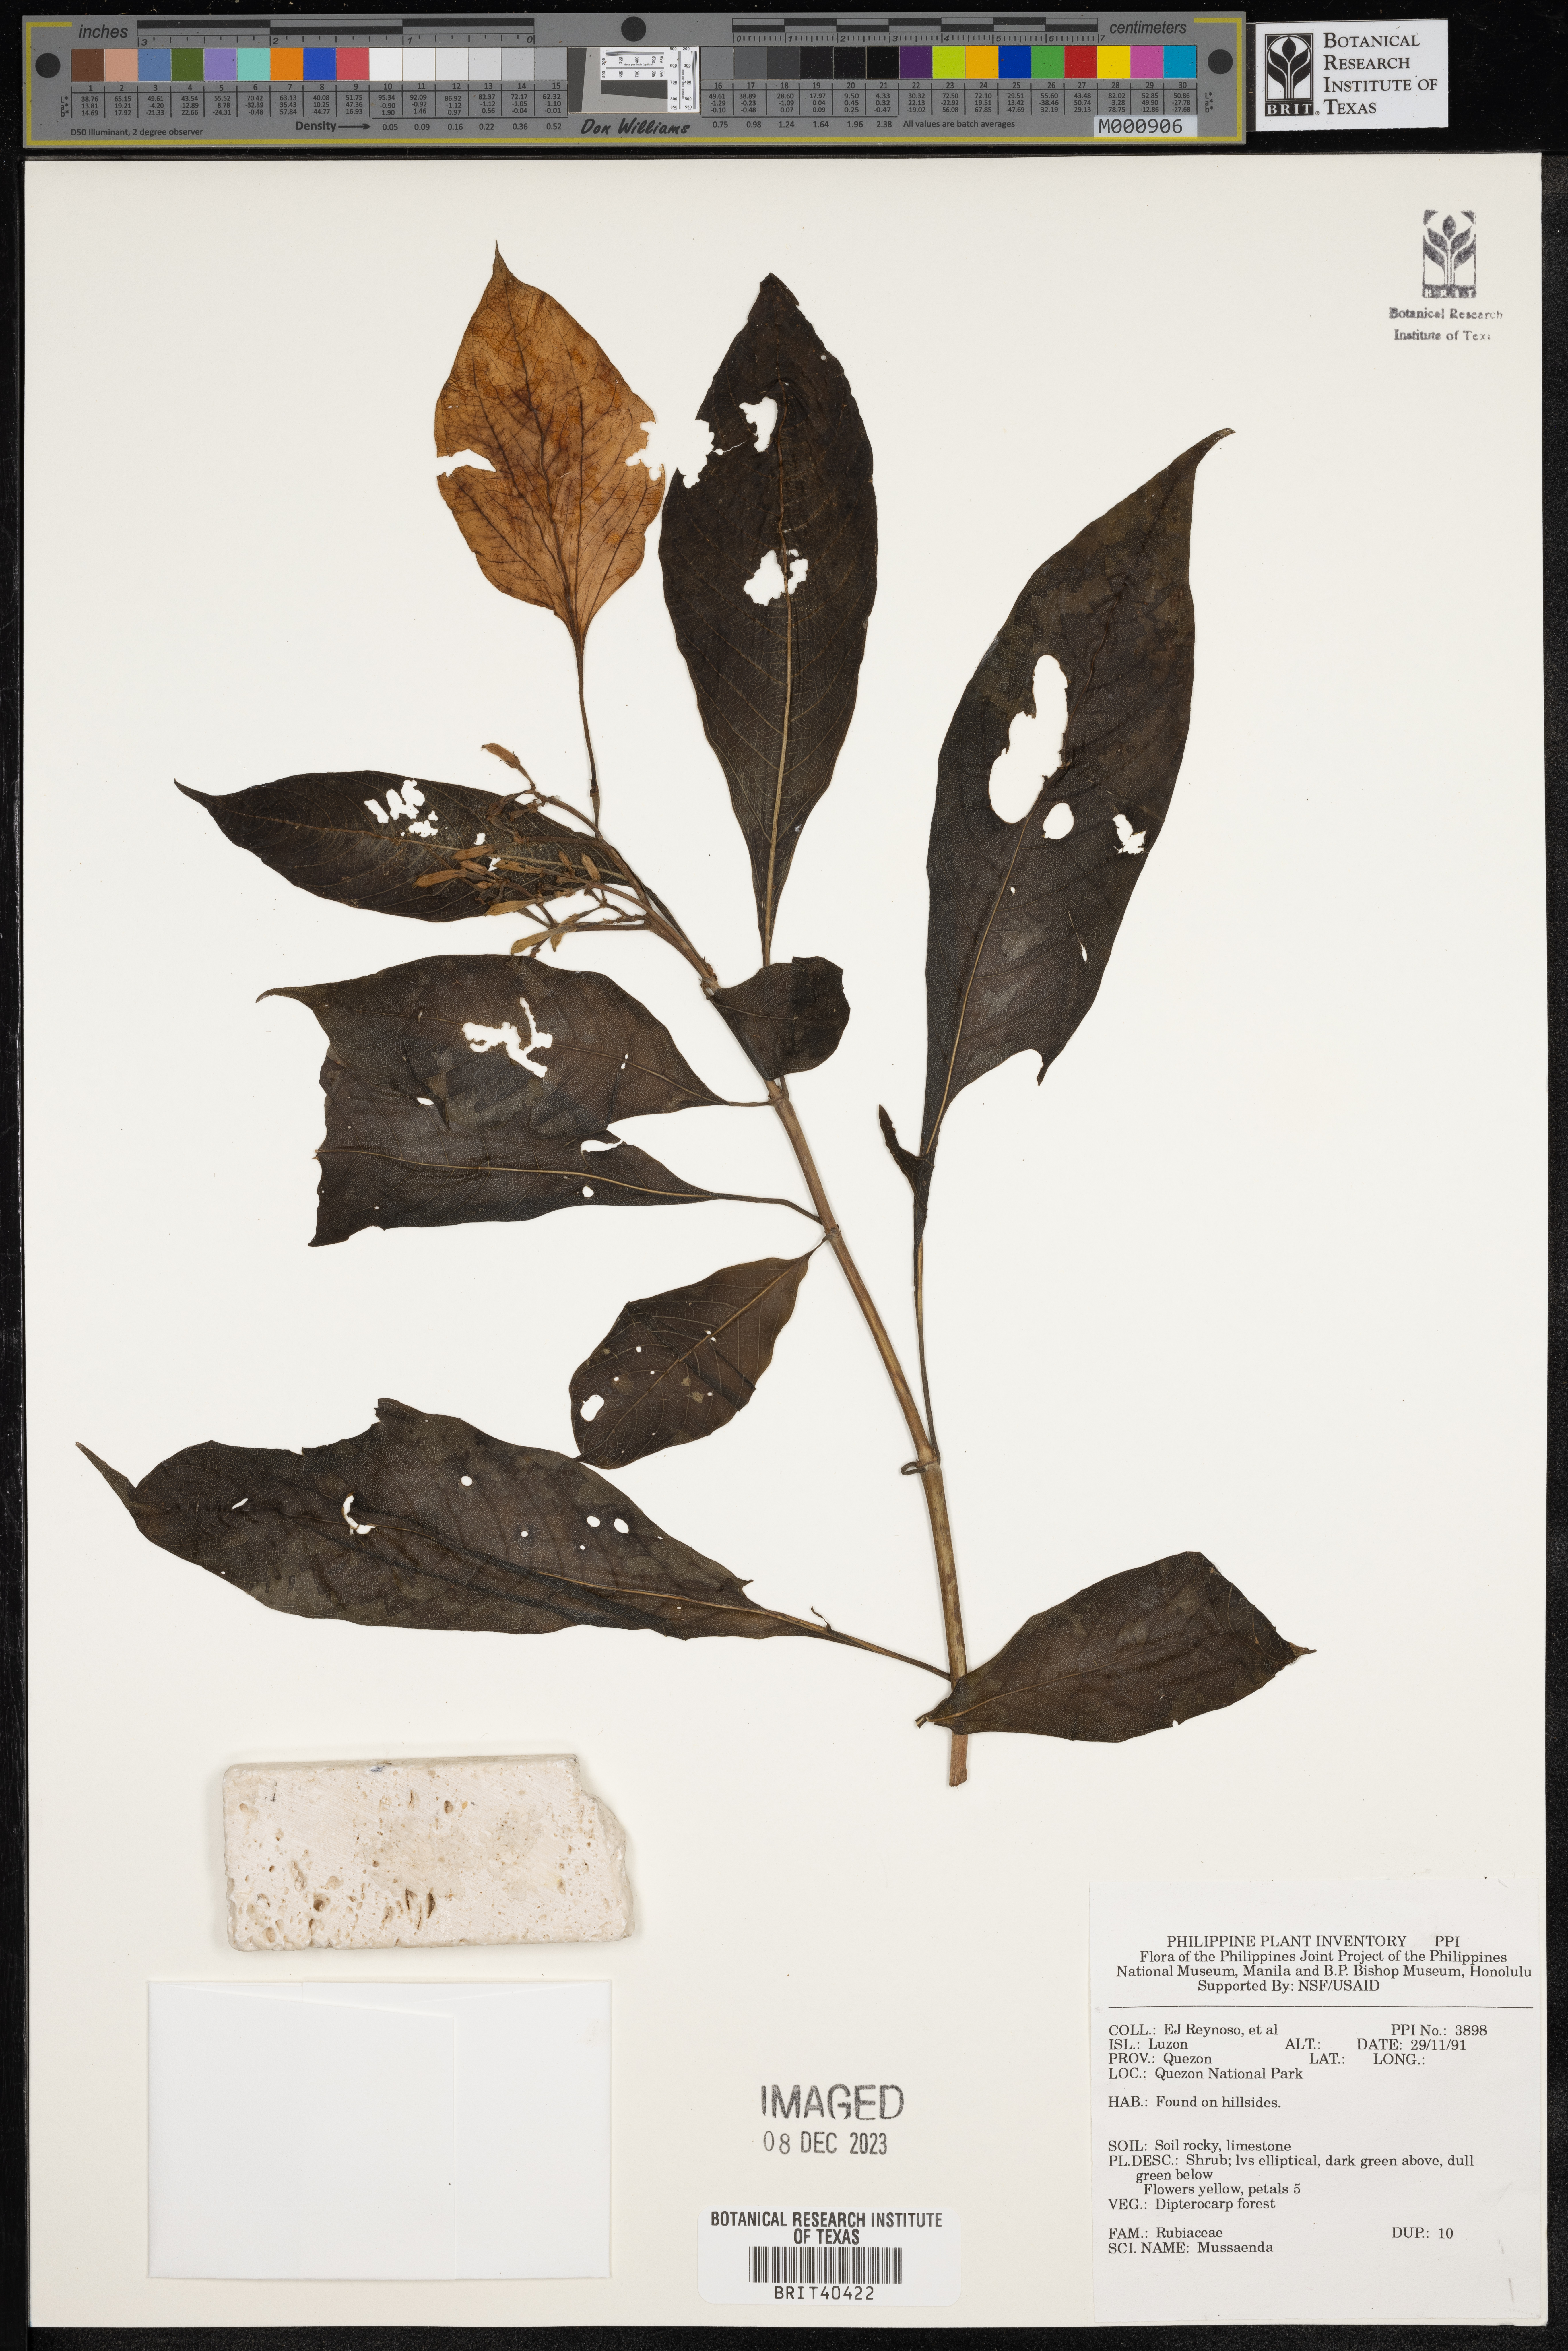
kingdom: Plantae
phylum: Tracheophyta
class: Magnoliopsida
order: Gentianales
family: Rubiaceae
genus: Mussaenda
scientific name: Mussaenda
